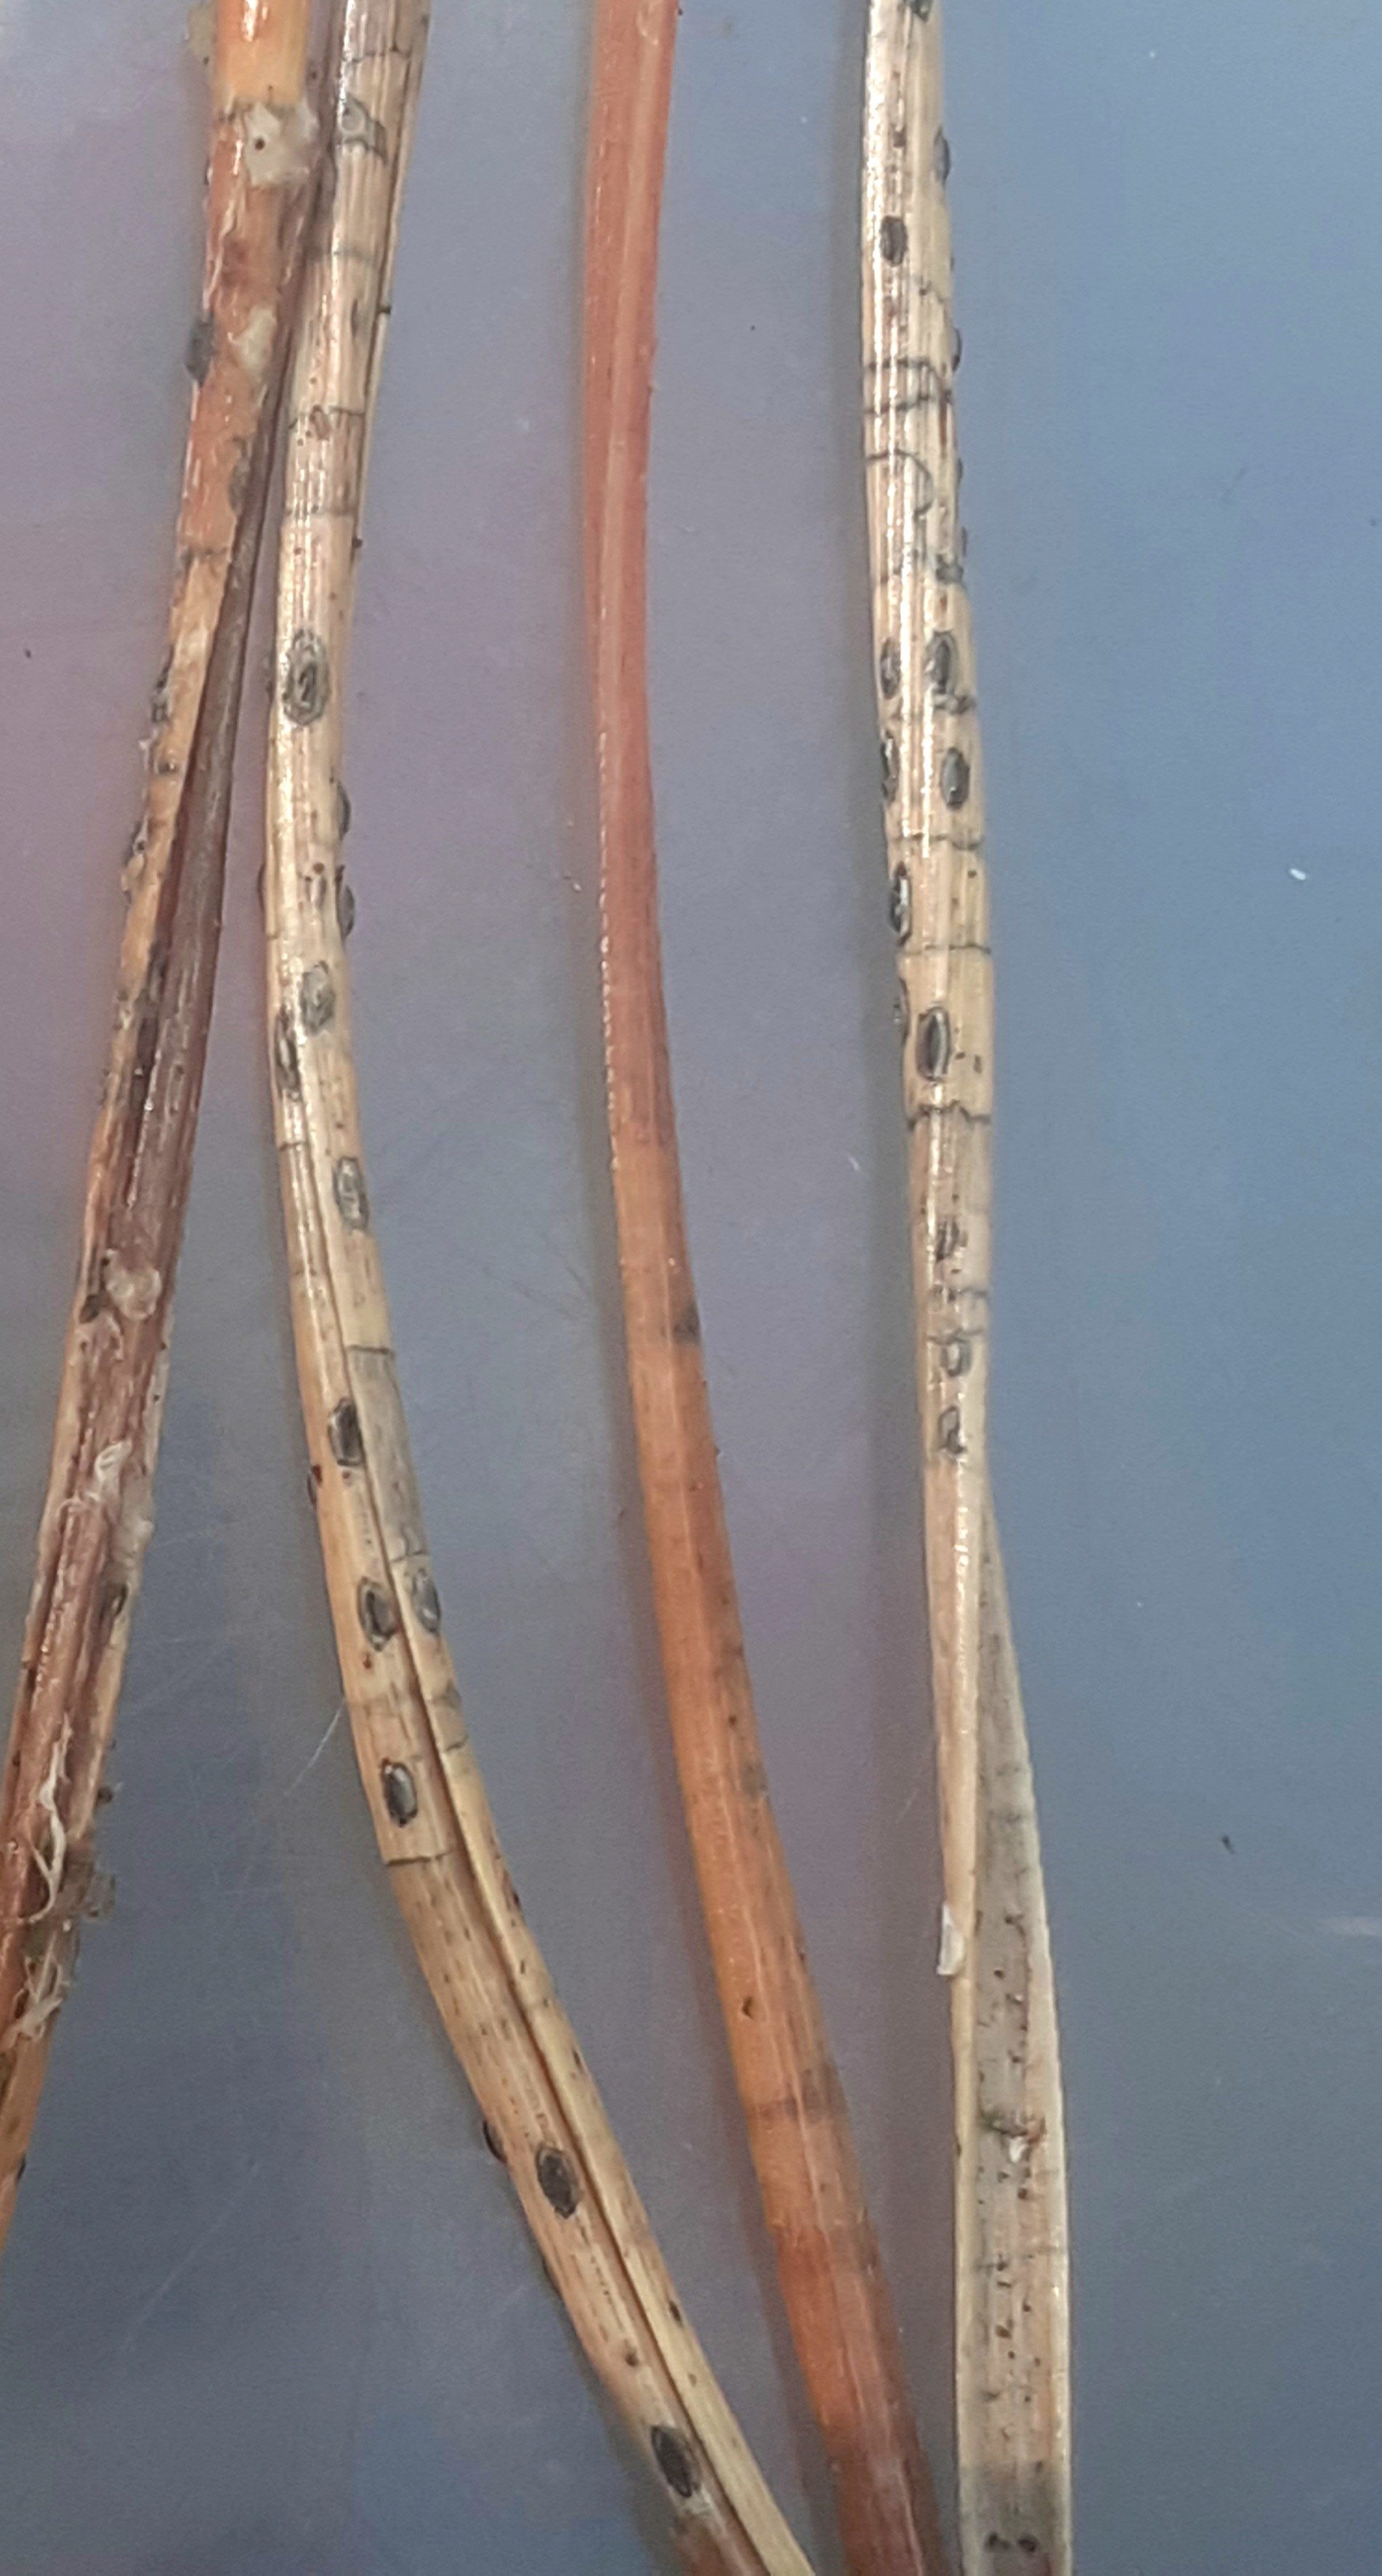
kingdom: Fungi
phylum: Ascomycota
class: Leotiomycetes
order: Rhytismatales
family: Rhytismataceae
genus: Lophodermium
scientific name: Lophodermium pinastri
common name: fyrre-fureplet
